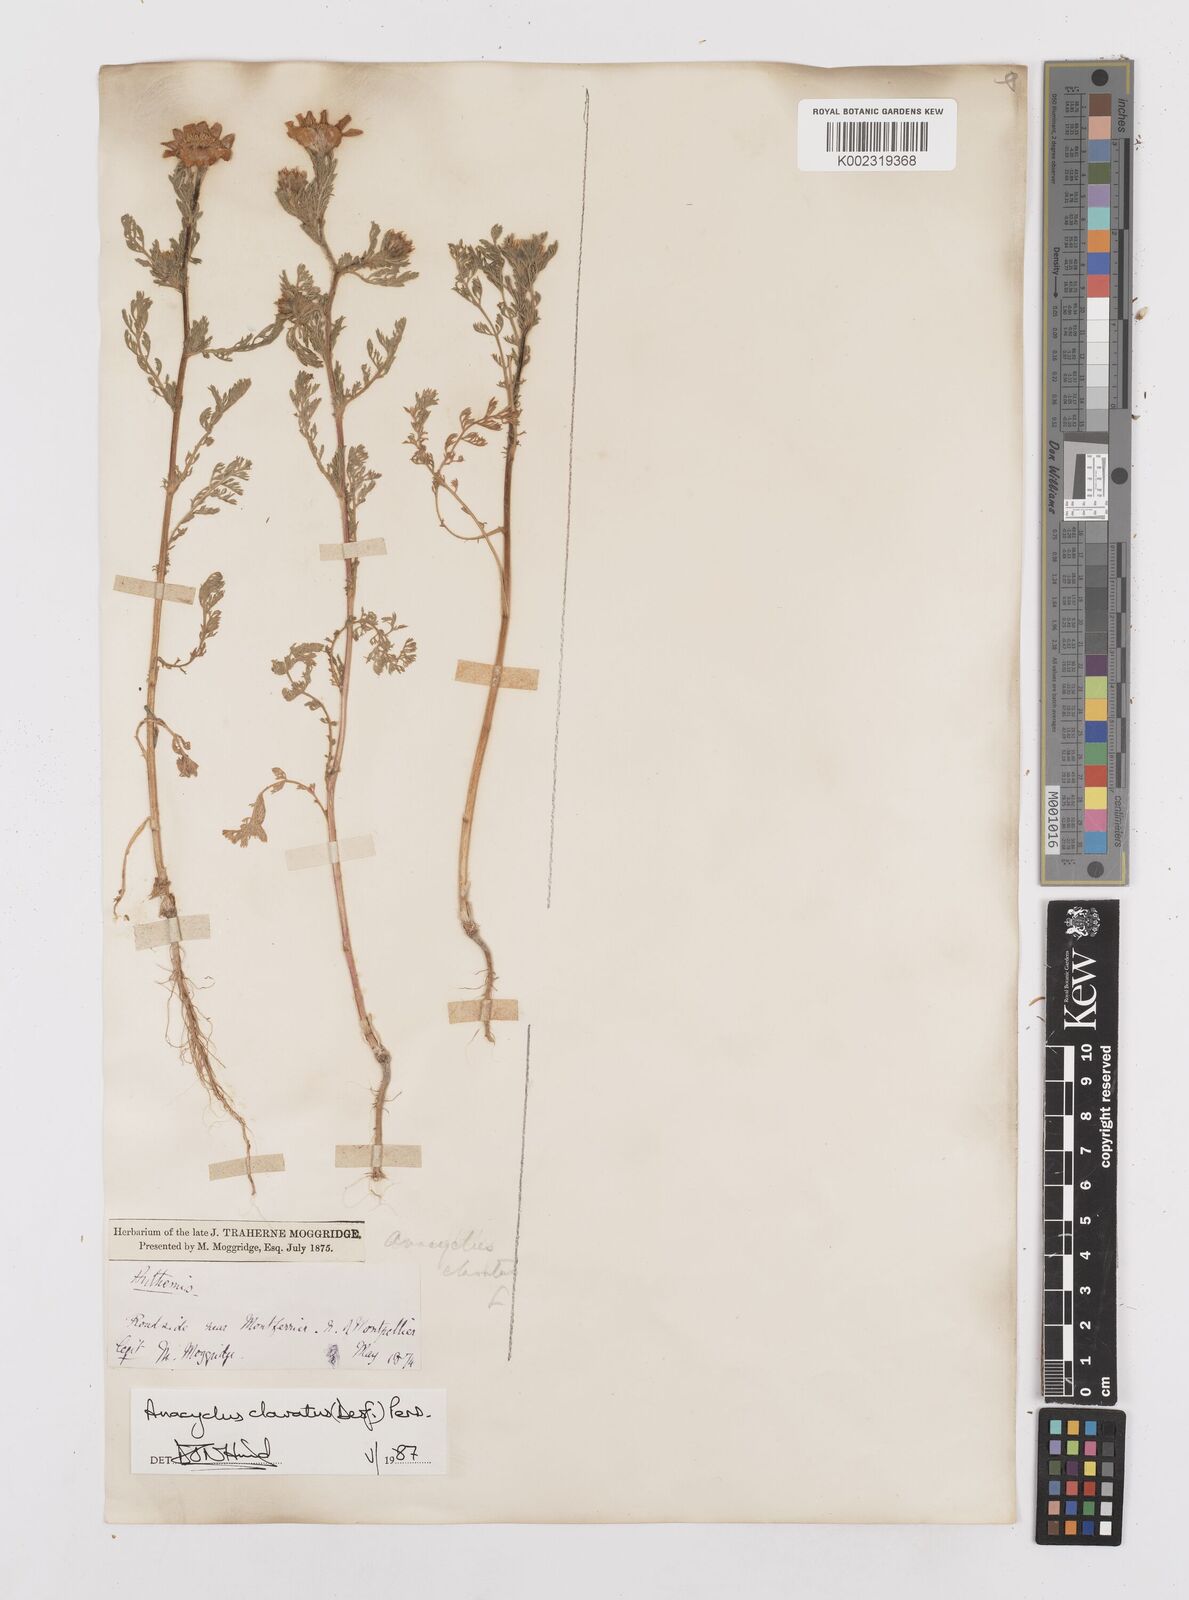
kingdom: Plantae
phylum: Tracheophyta
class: Magnoliopsida
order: Asterales
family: Asteraceae
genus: Anacyclus
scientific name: Anacyclus clavatus
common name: Whitebuttons
